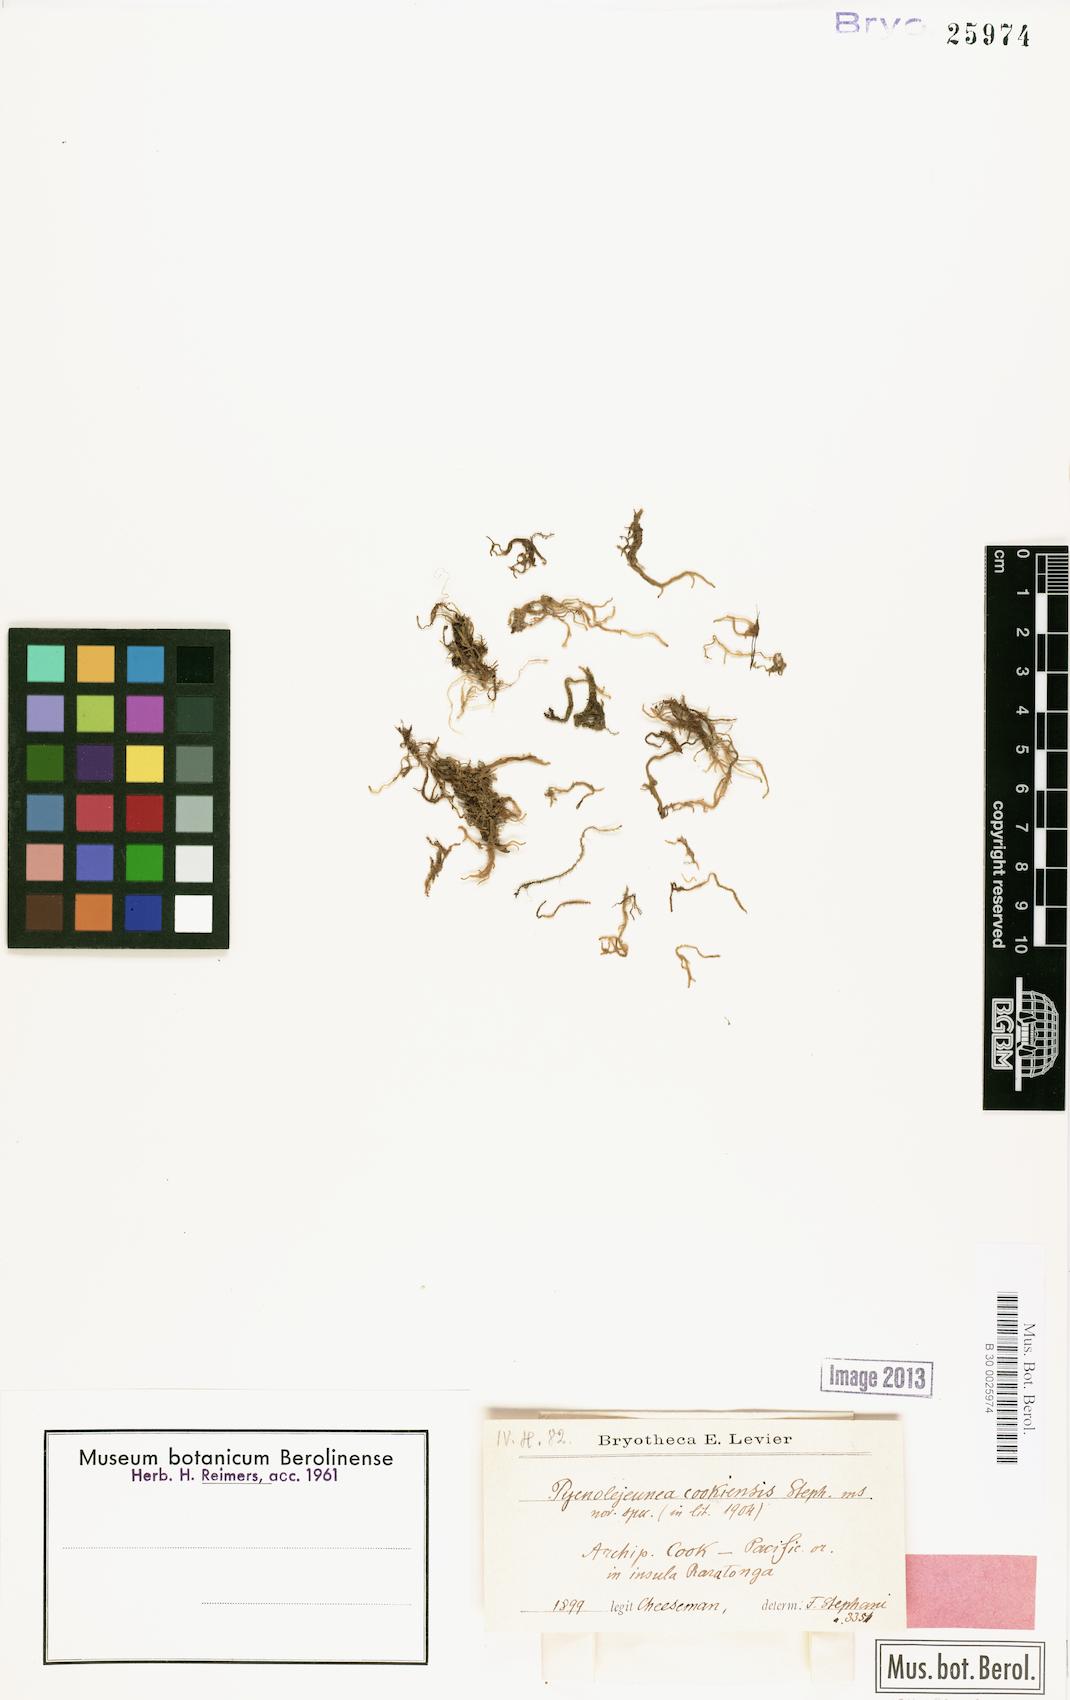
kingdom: Plantae
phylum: Marchantiophyta
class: Jungermanniopsida
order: Porellales
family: Lejeuneaceae
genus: Cheilolejeunea
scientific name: Cheilolejeunea parkinsonii
